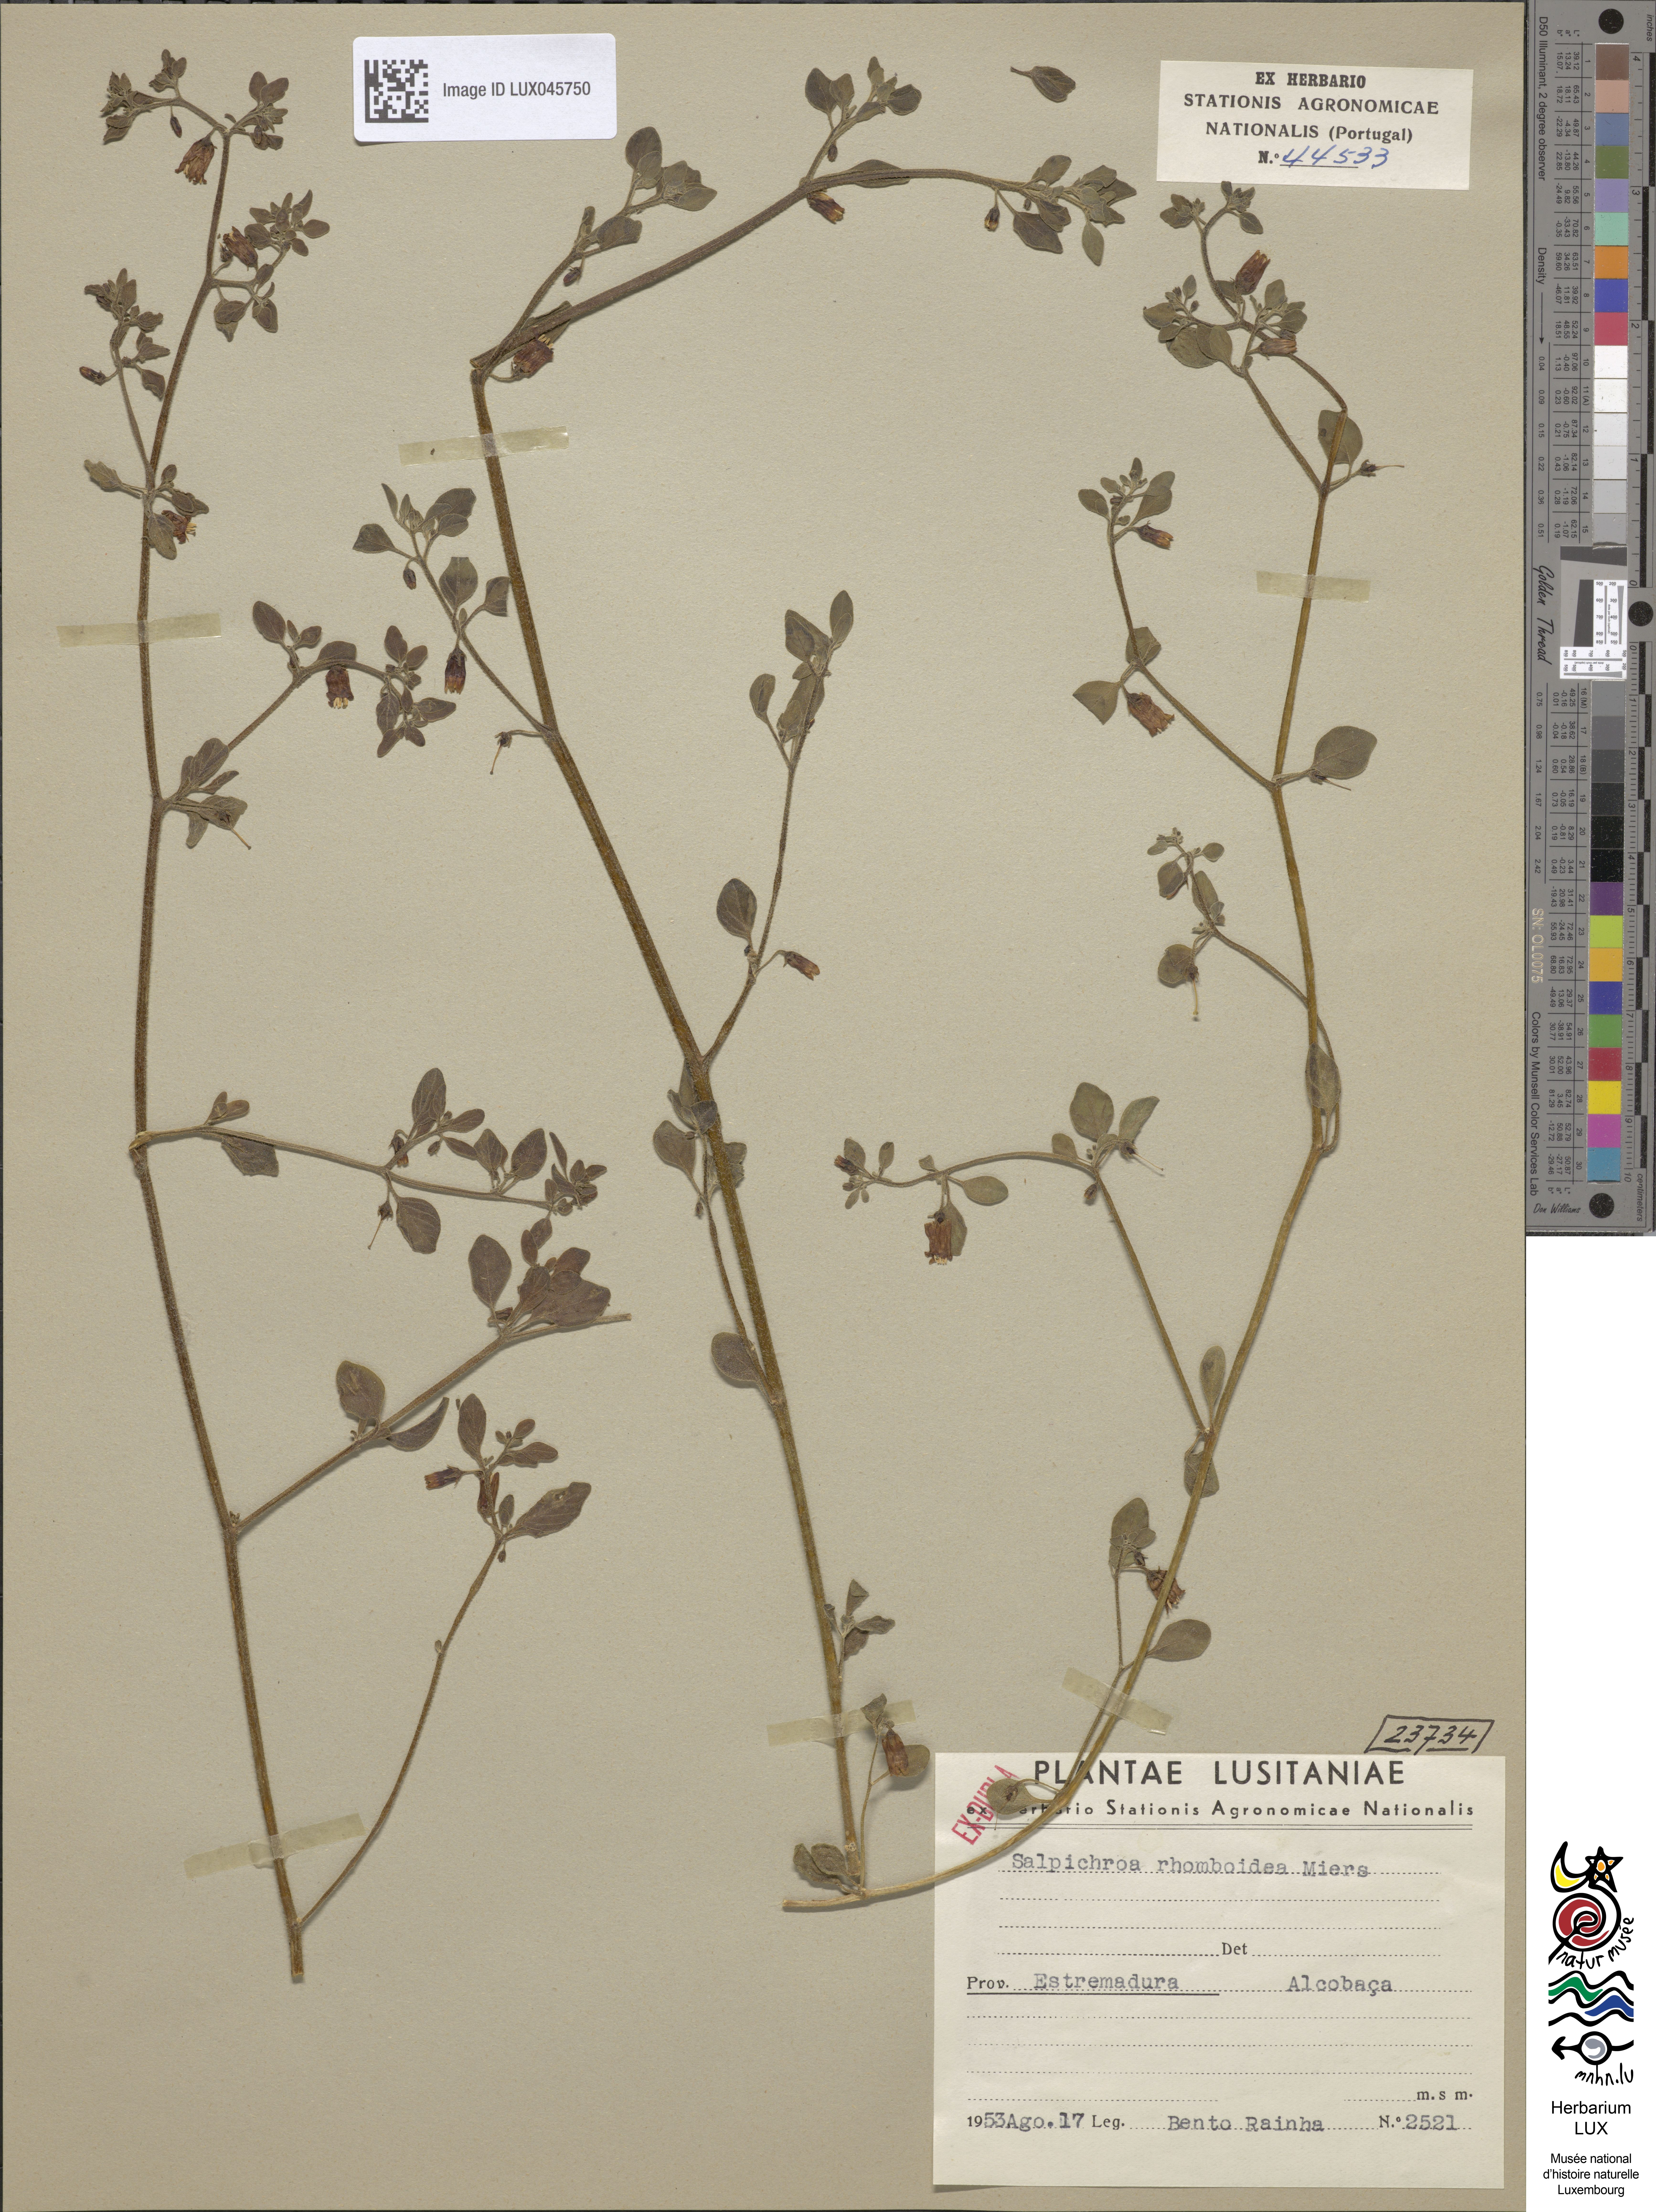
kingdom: Plantae
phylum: Tracheophyta
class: Magnoliopsida
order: Solanales
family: Solanaceae
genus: Salpichroa
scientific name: Salpichroa origanifolia
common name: Lily-of-the-valley-vine
